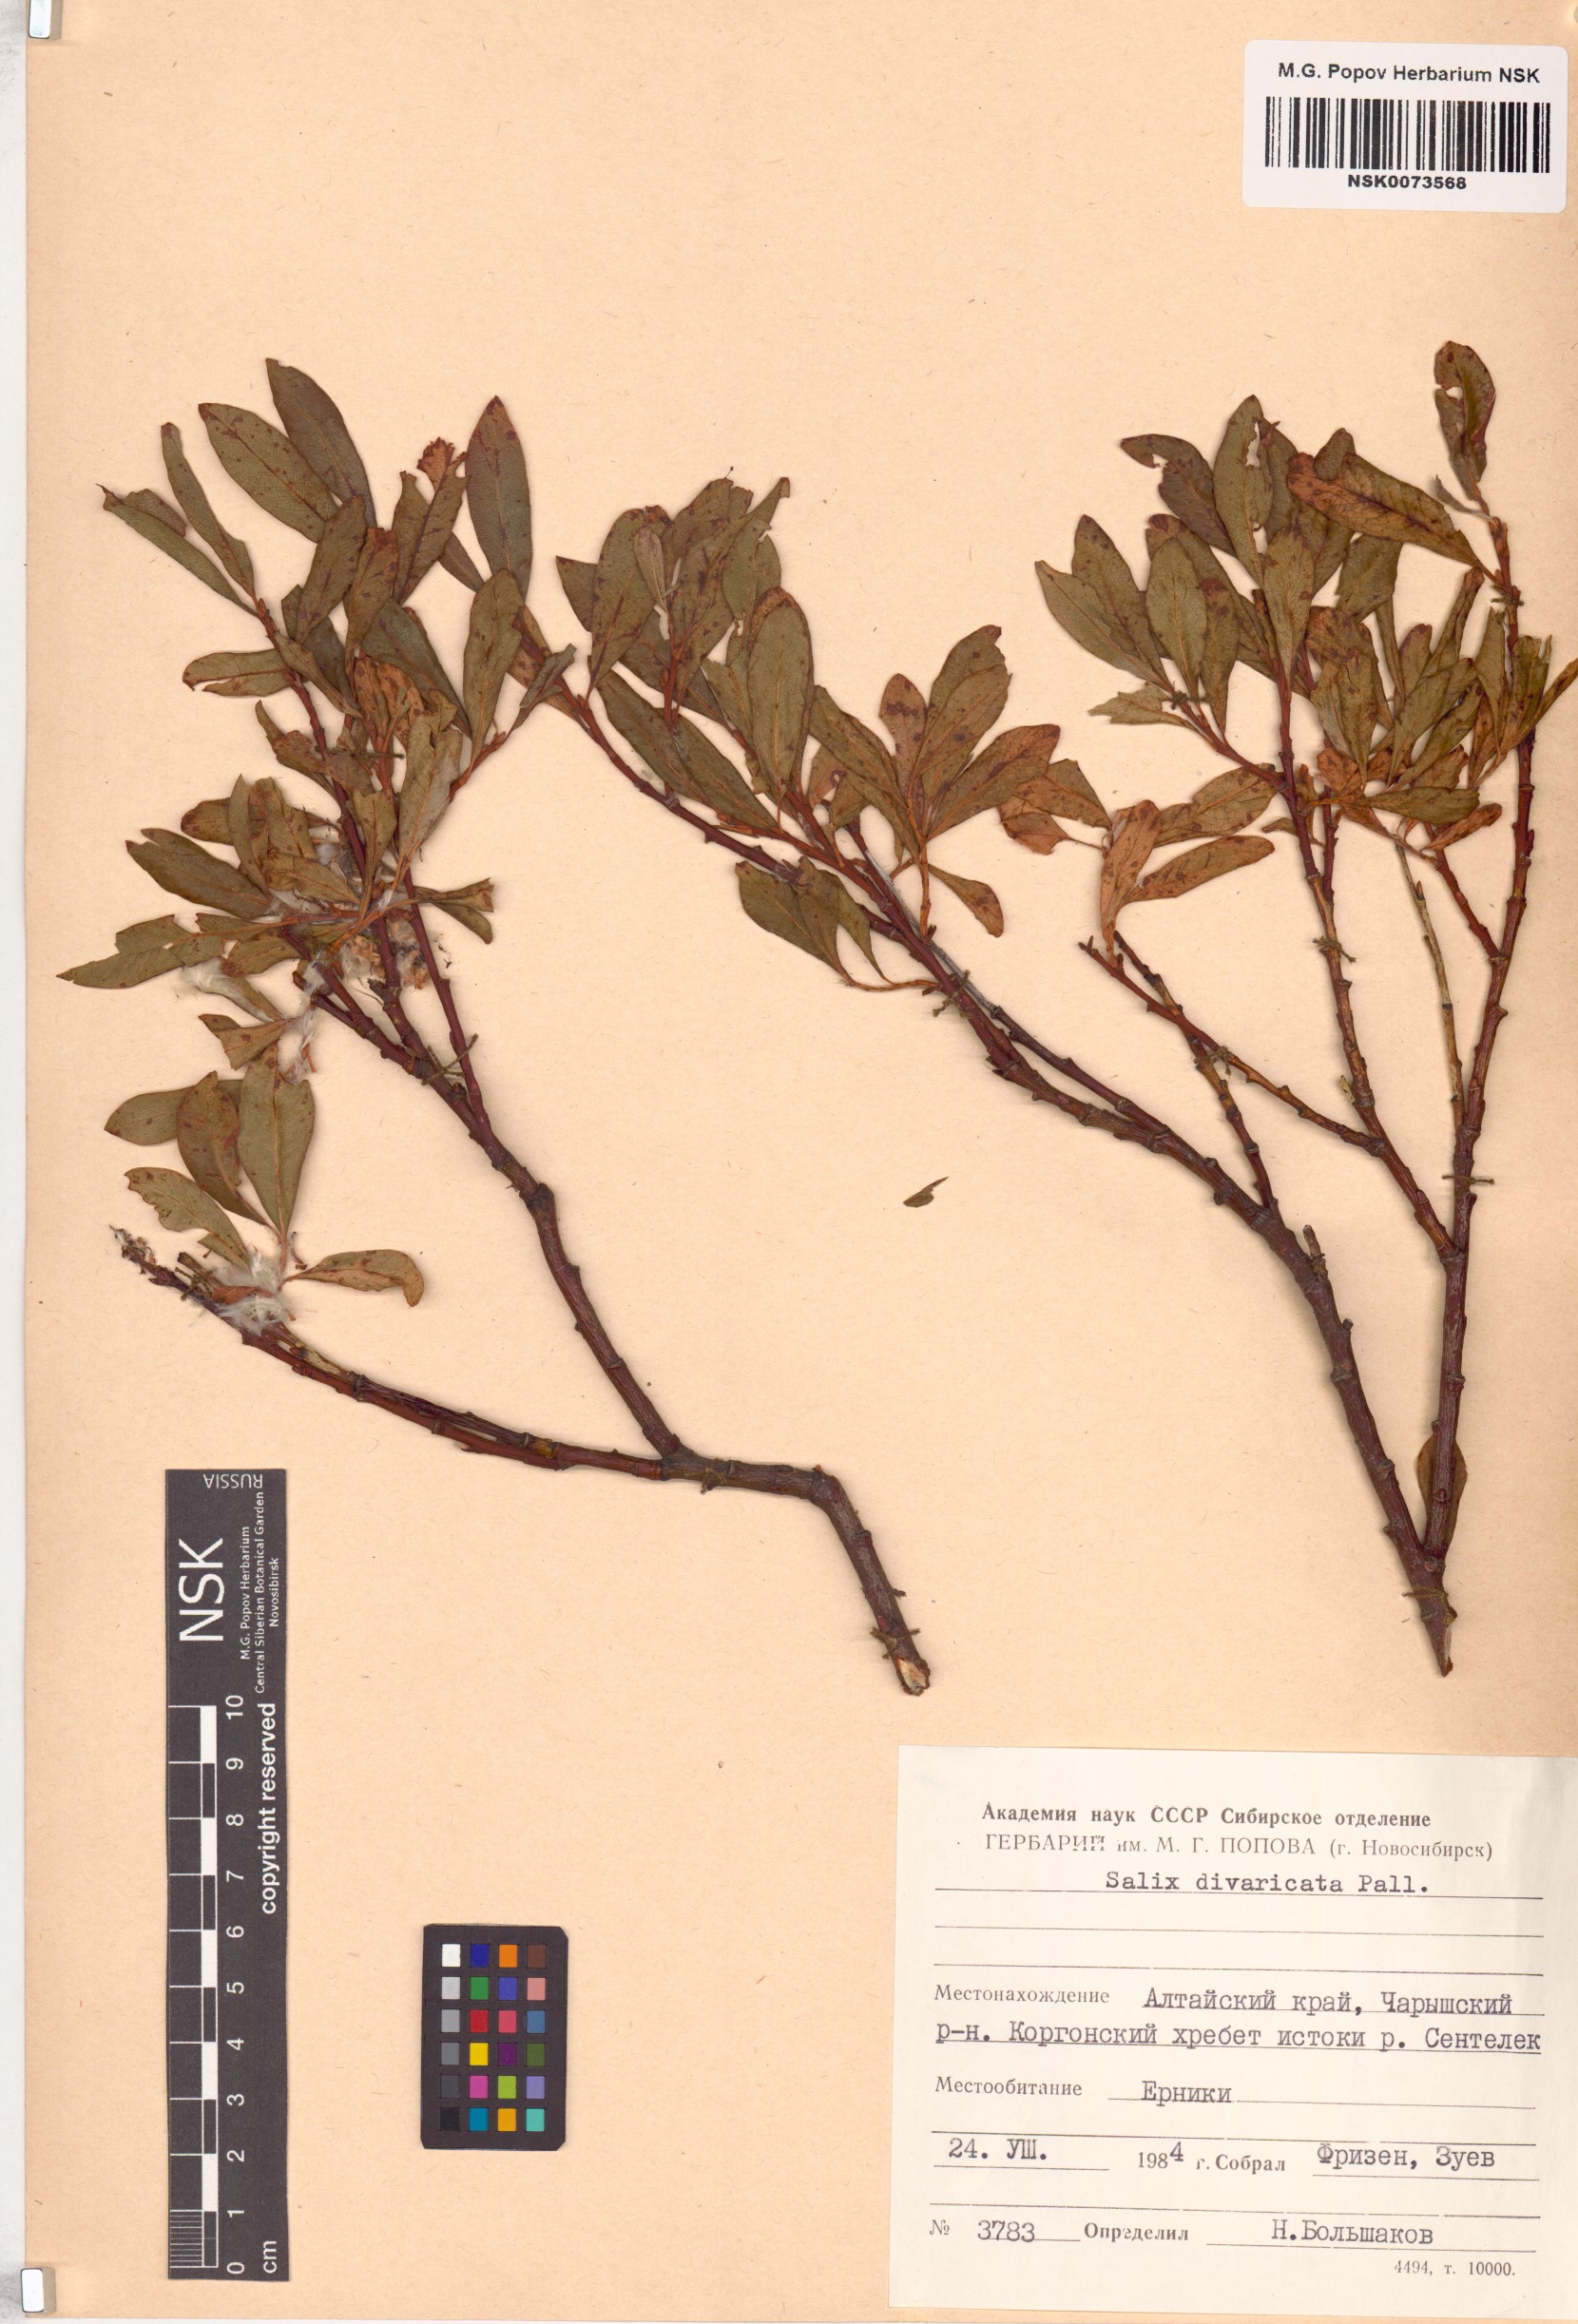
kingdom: Plantae
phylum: Tracheophyta
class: Magnoliopsida
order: Malpighiales
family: Salicaceae
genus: Salix
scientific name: Salix divaricata
